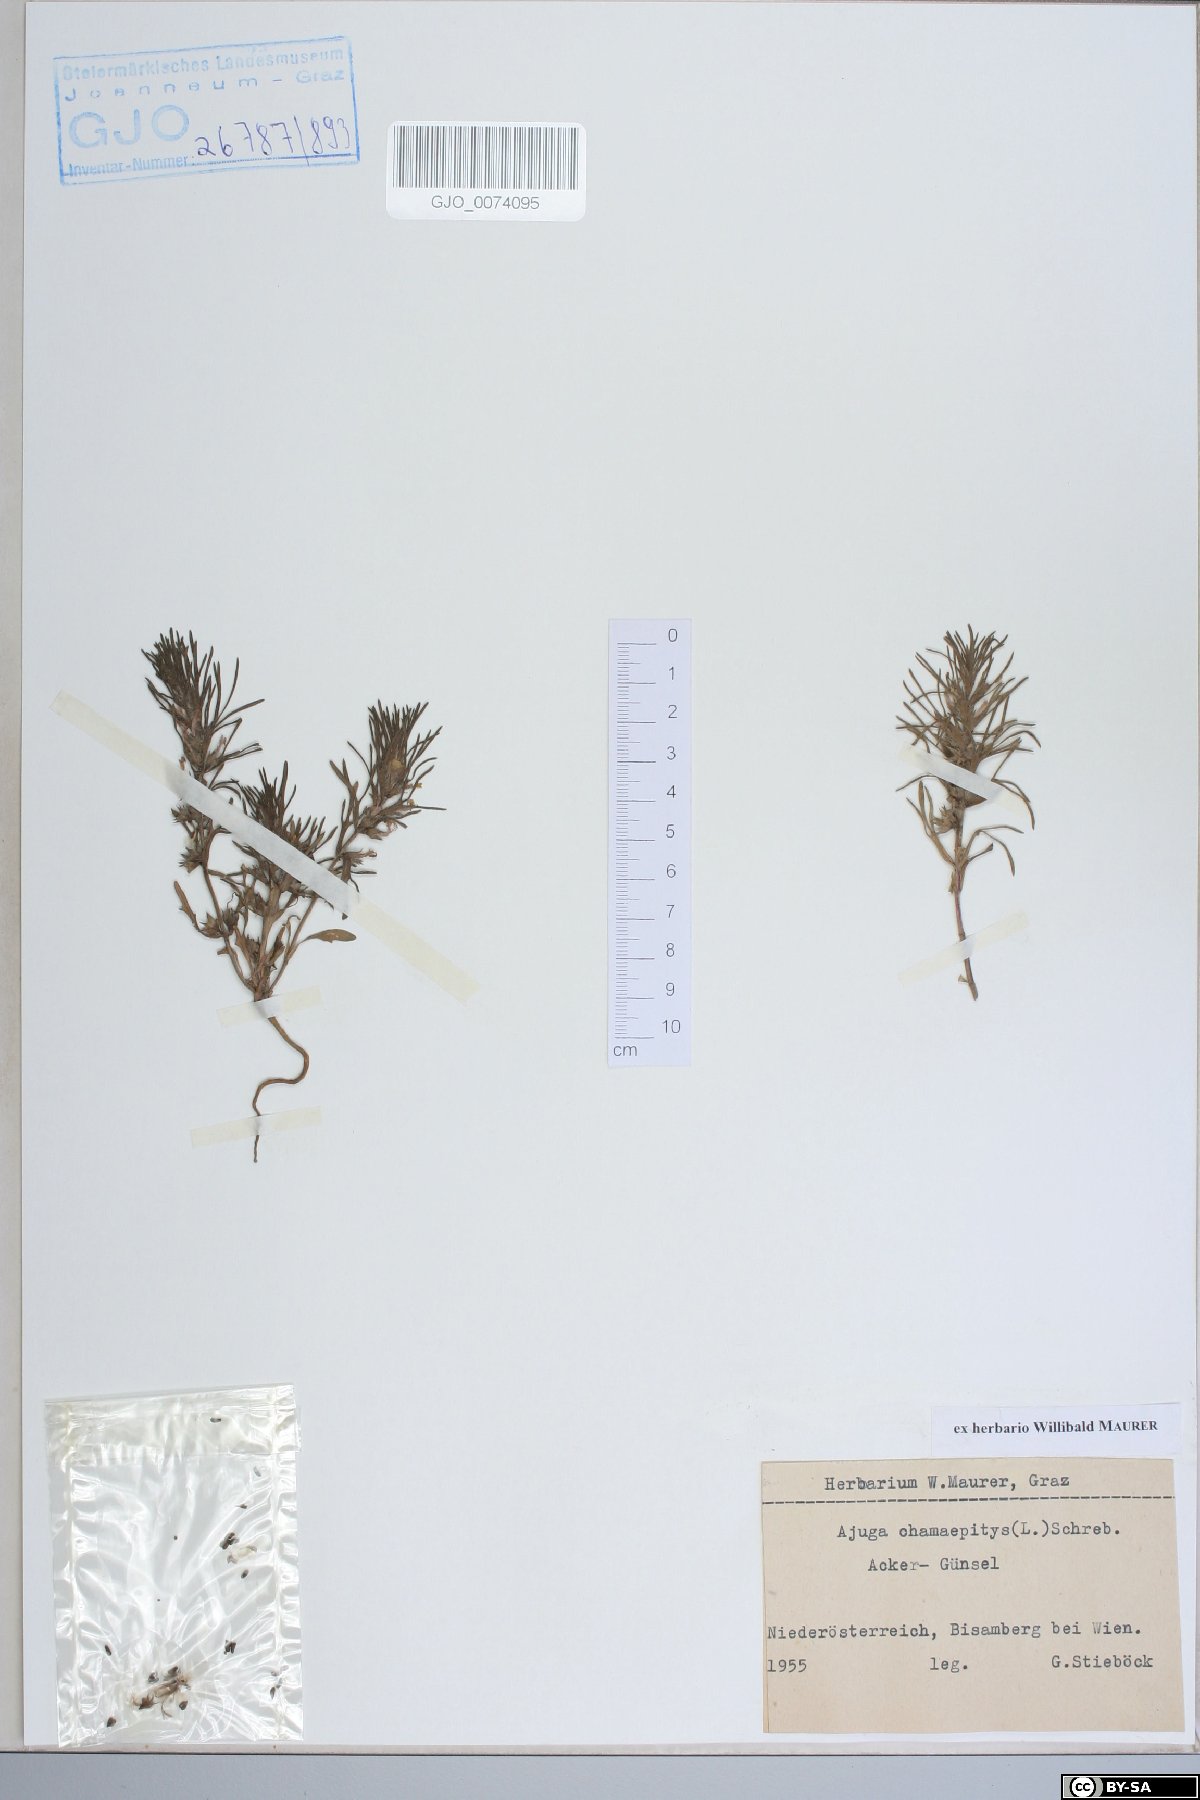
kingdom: Plantae
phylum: Tracheophyta
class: Magnoliopsida
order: Lamiales
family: Lamiaceae
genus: Ajuga
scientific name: Ajuga chamaepitys
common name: Ground-pine
